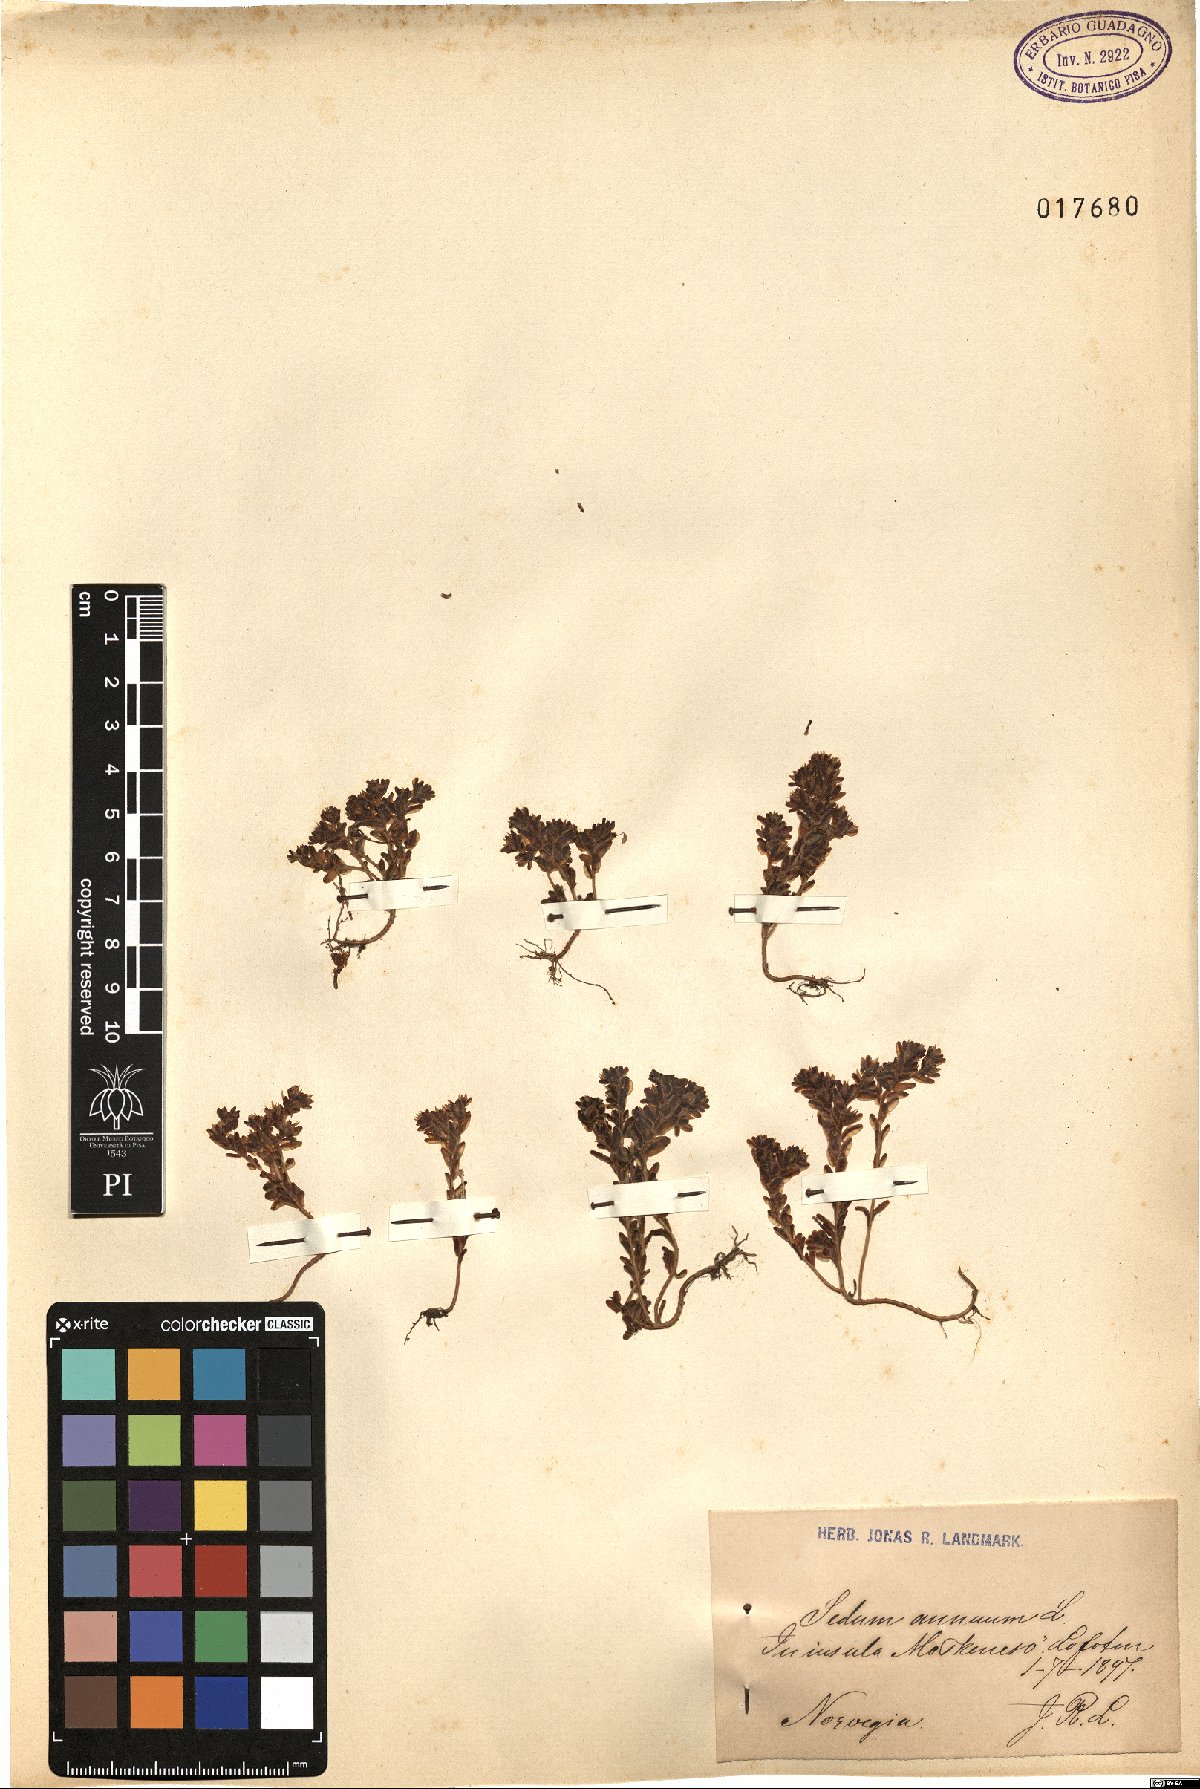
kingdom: Plantae
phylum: Tracheophyta
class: Magnoliopsida
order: Saxifragales
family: Crassulaceae
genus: Sedum
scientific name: Sedum annuum
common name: Annual stonecrop
